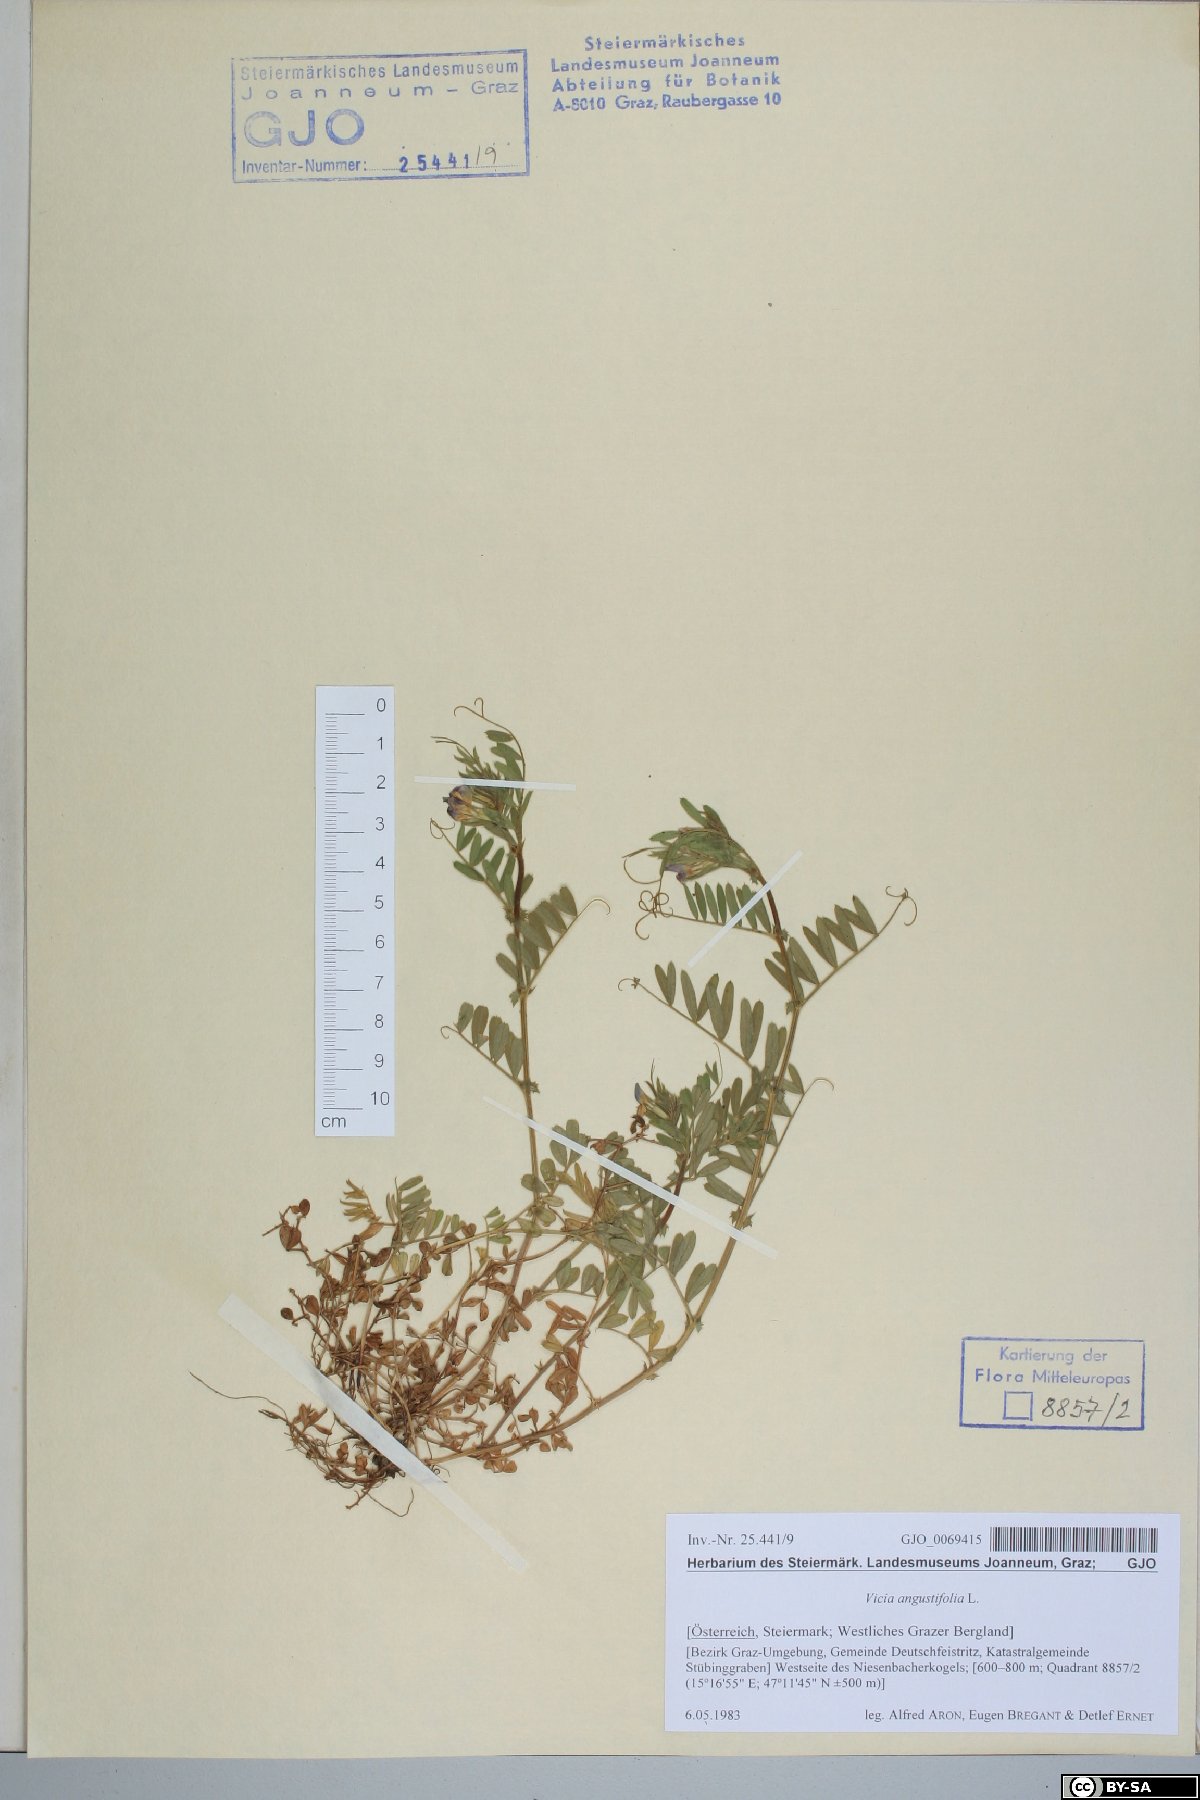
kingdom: Plantae
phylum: Tracheophyta
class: Magnoliopsida
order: Fabales
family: Fabaceae
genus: Vicia
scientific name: Vicia sativa
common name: Garden vetch
